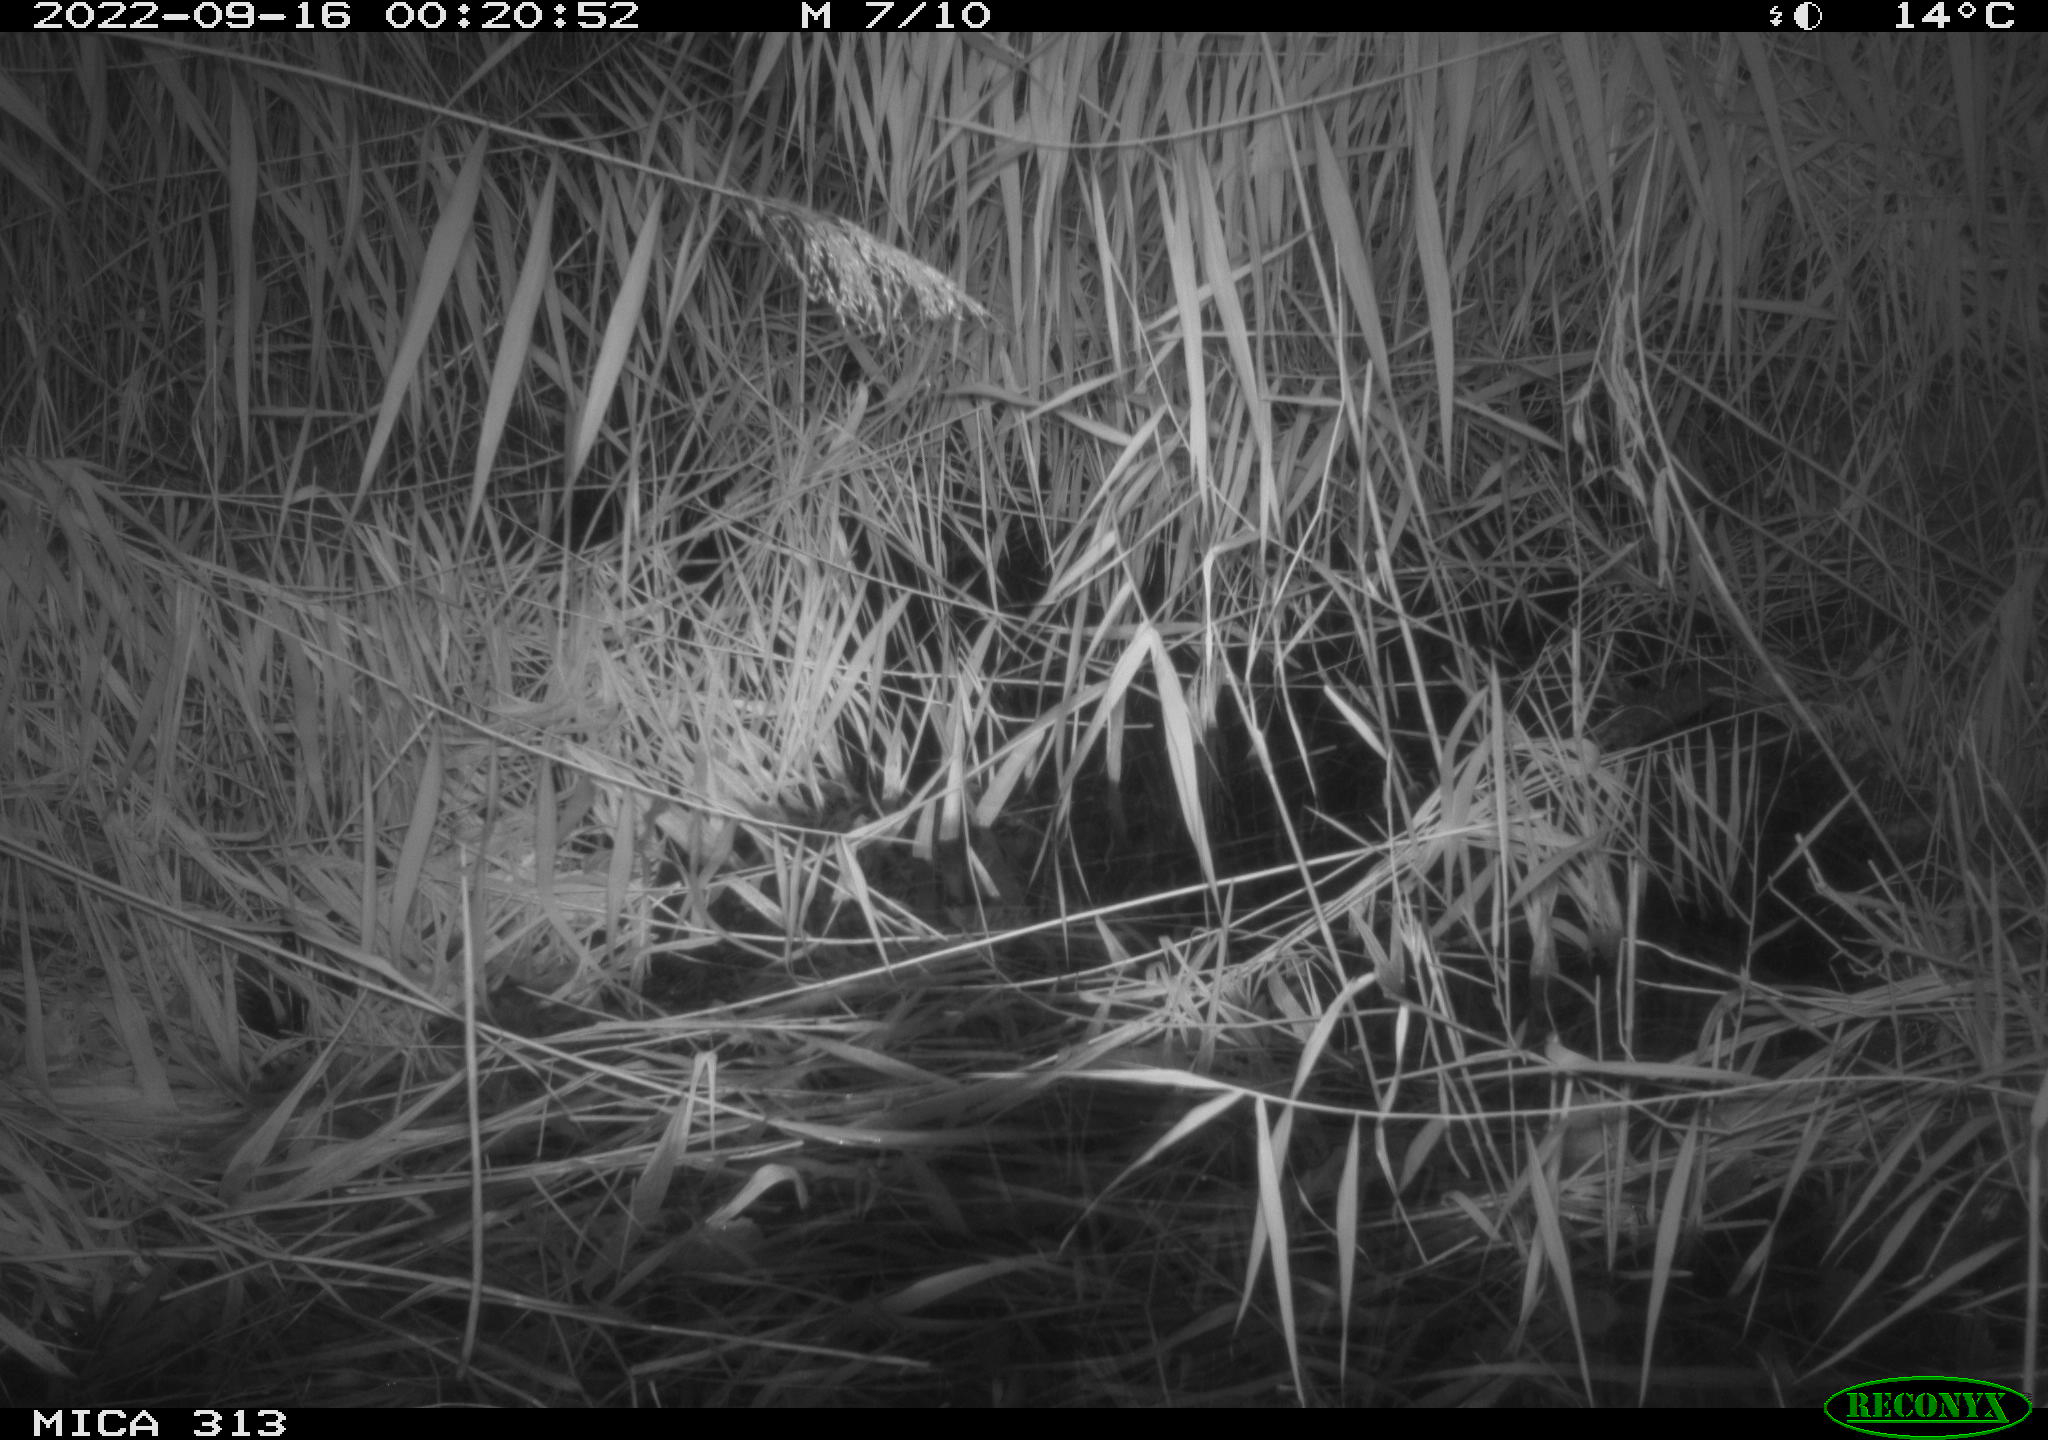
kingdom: Animalia
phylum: Chordata
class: Mammalia
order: Rodentia
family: Muridae
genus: Rattus
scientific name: Rattus norvegicus
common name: Brown rat
